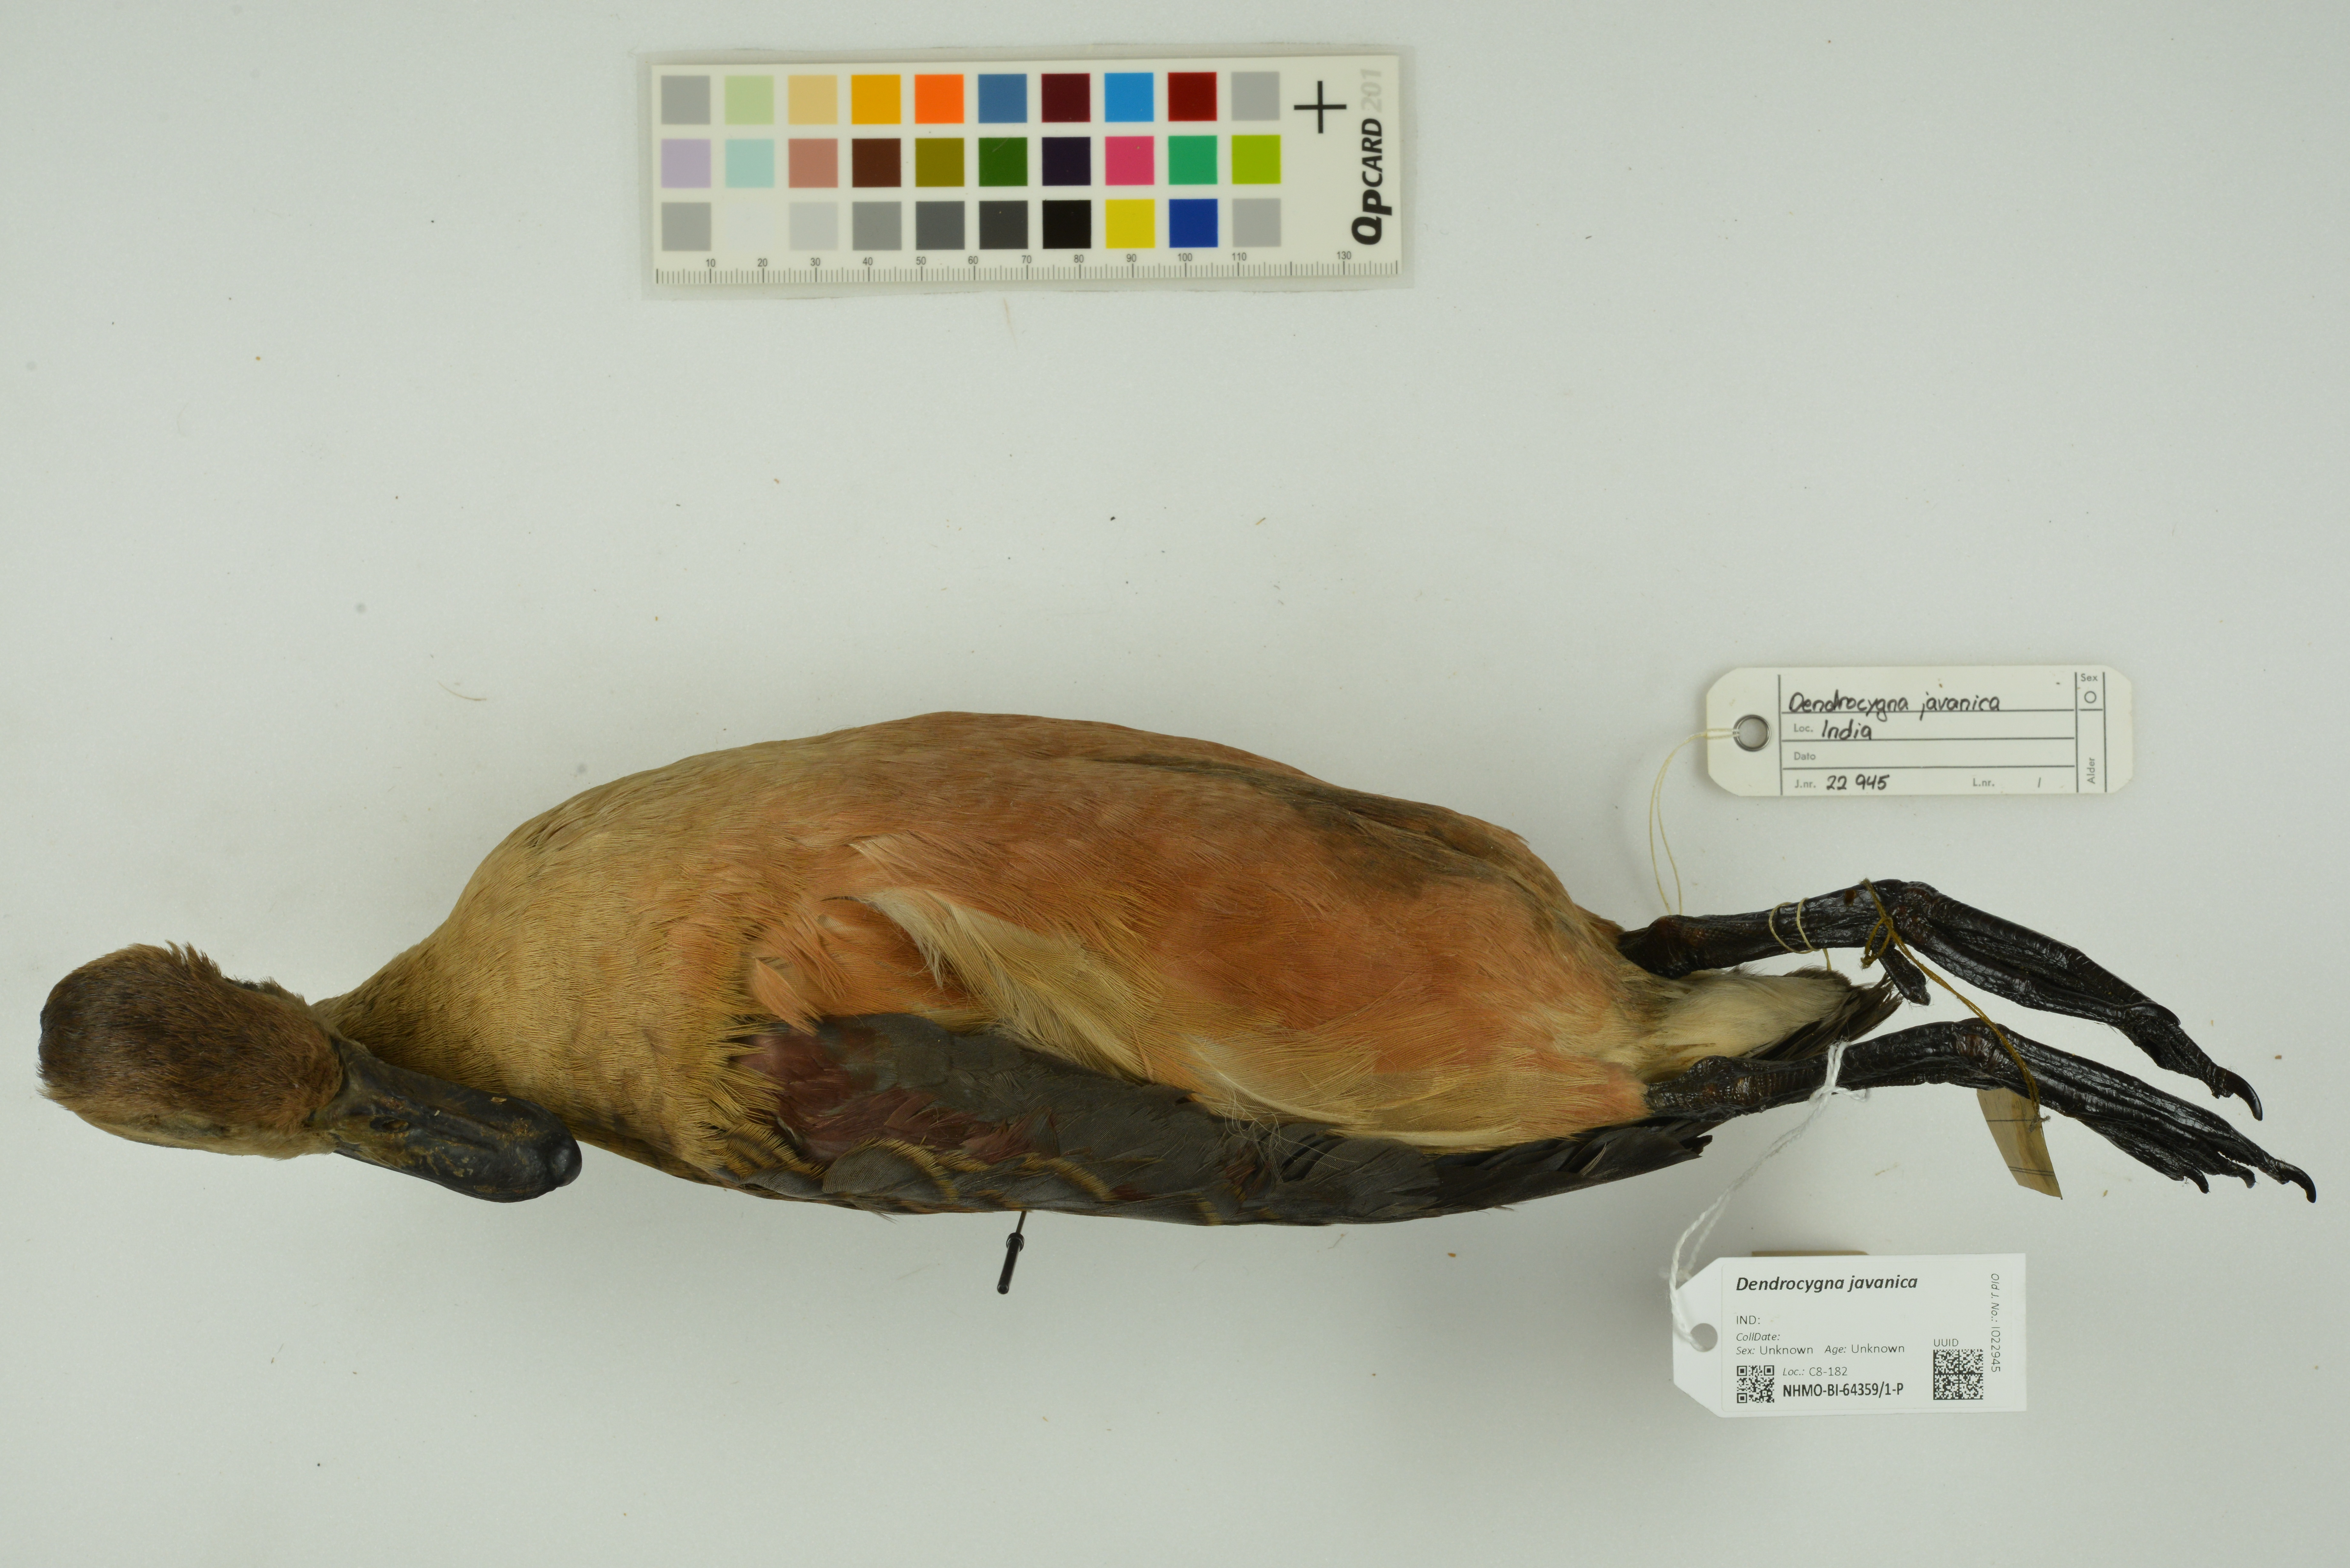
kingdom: Animalia
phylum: Chordata
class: Aves
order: Anseriformes
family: Anatidae
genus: Dendrocygna
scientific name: Dendrocygna javanica
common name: Lesser whistling-duck
